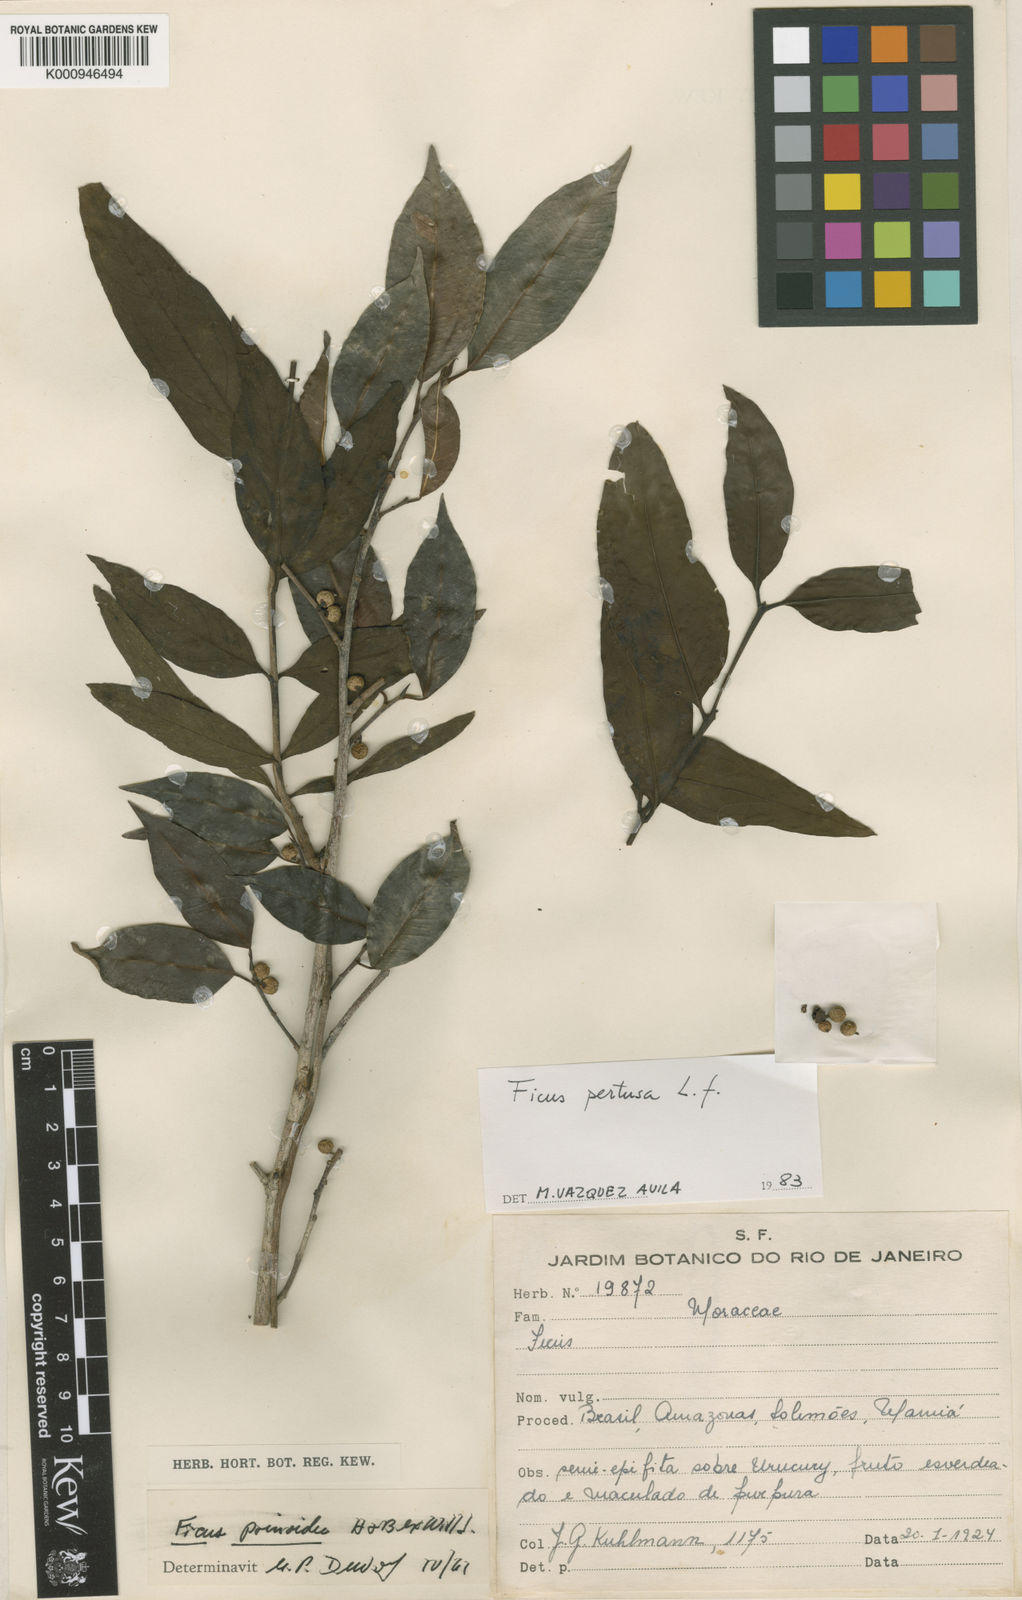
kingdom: Plantae
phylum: Tracheophyta
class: Magnoliopsida
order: Rosales
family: Moraceae
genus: Ficus
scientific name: Ficus pertusa
